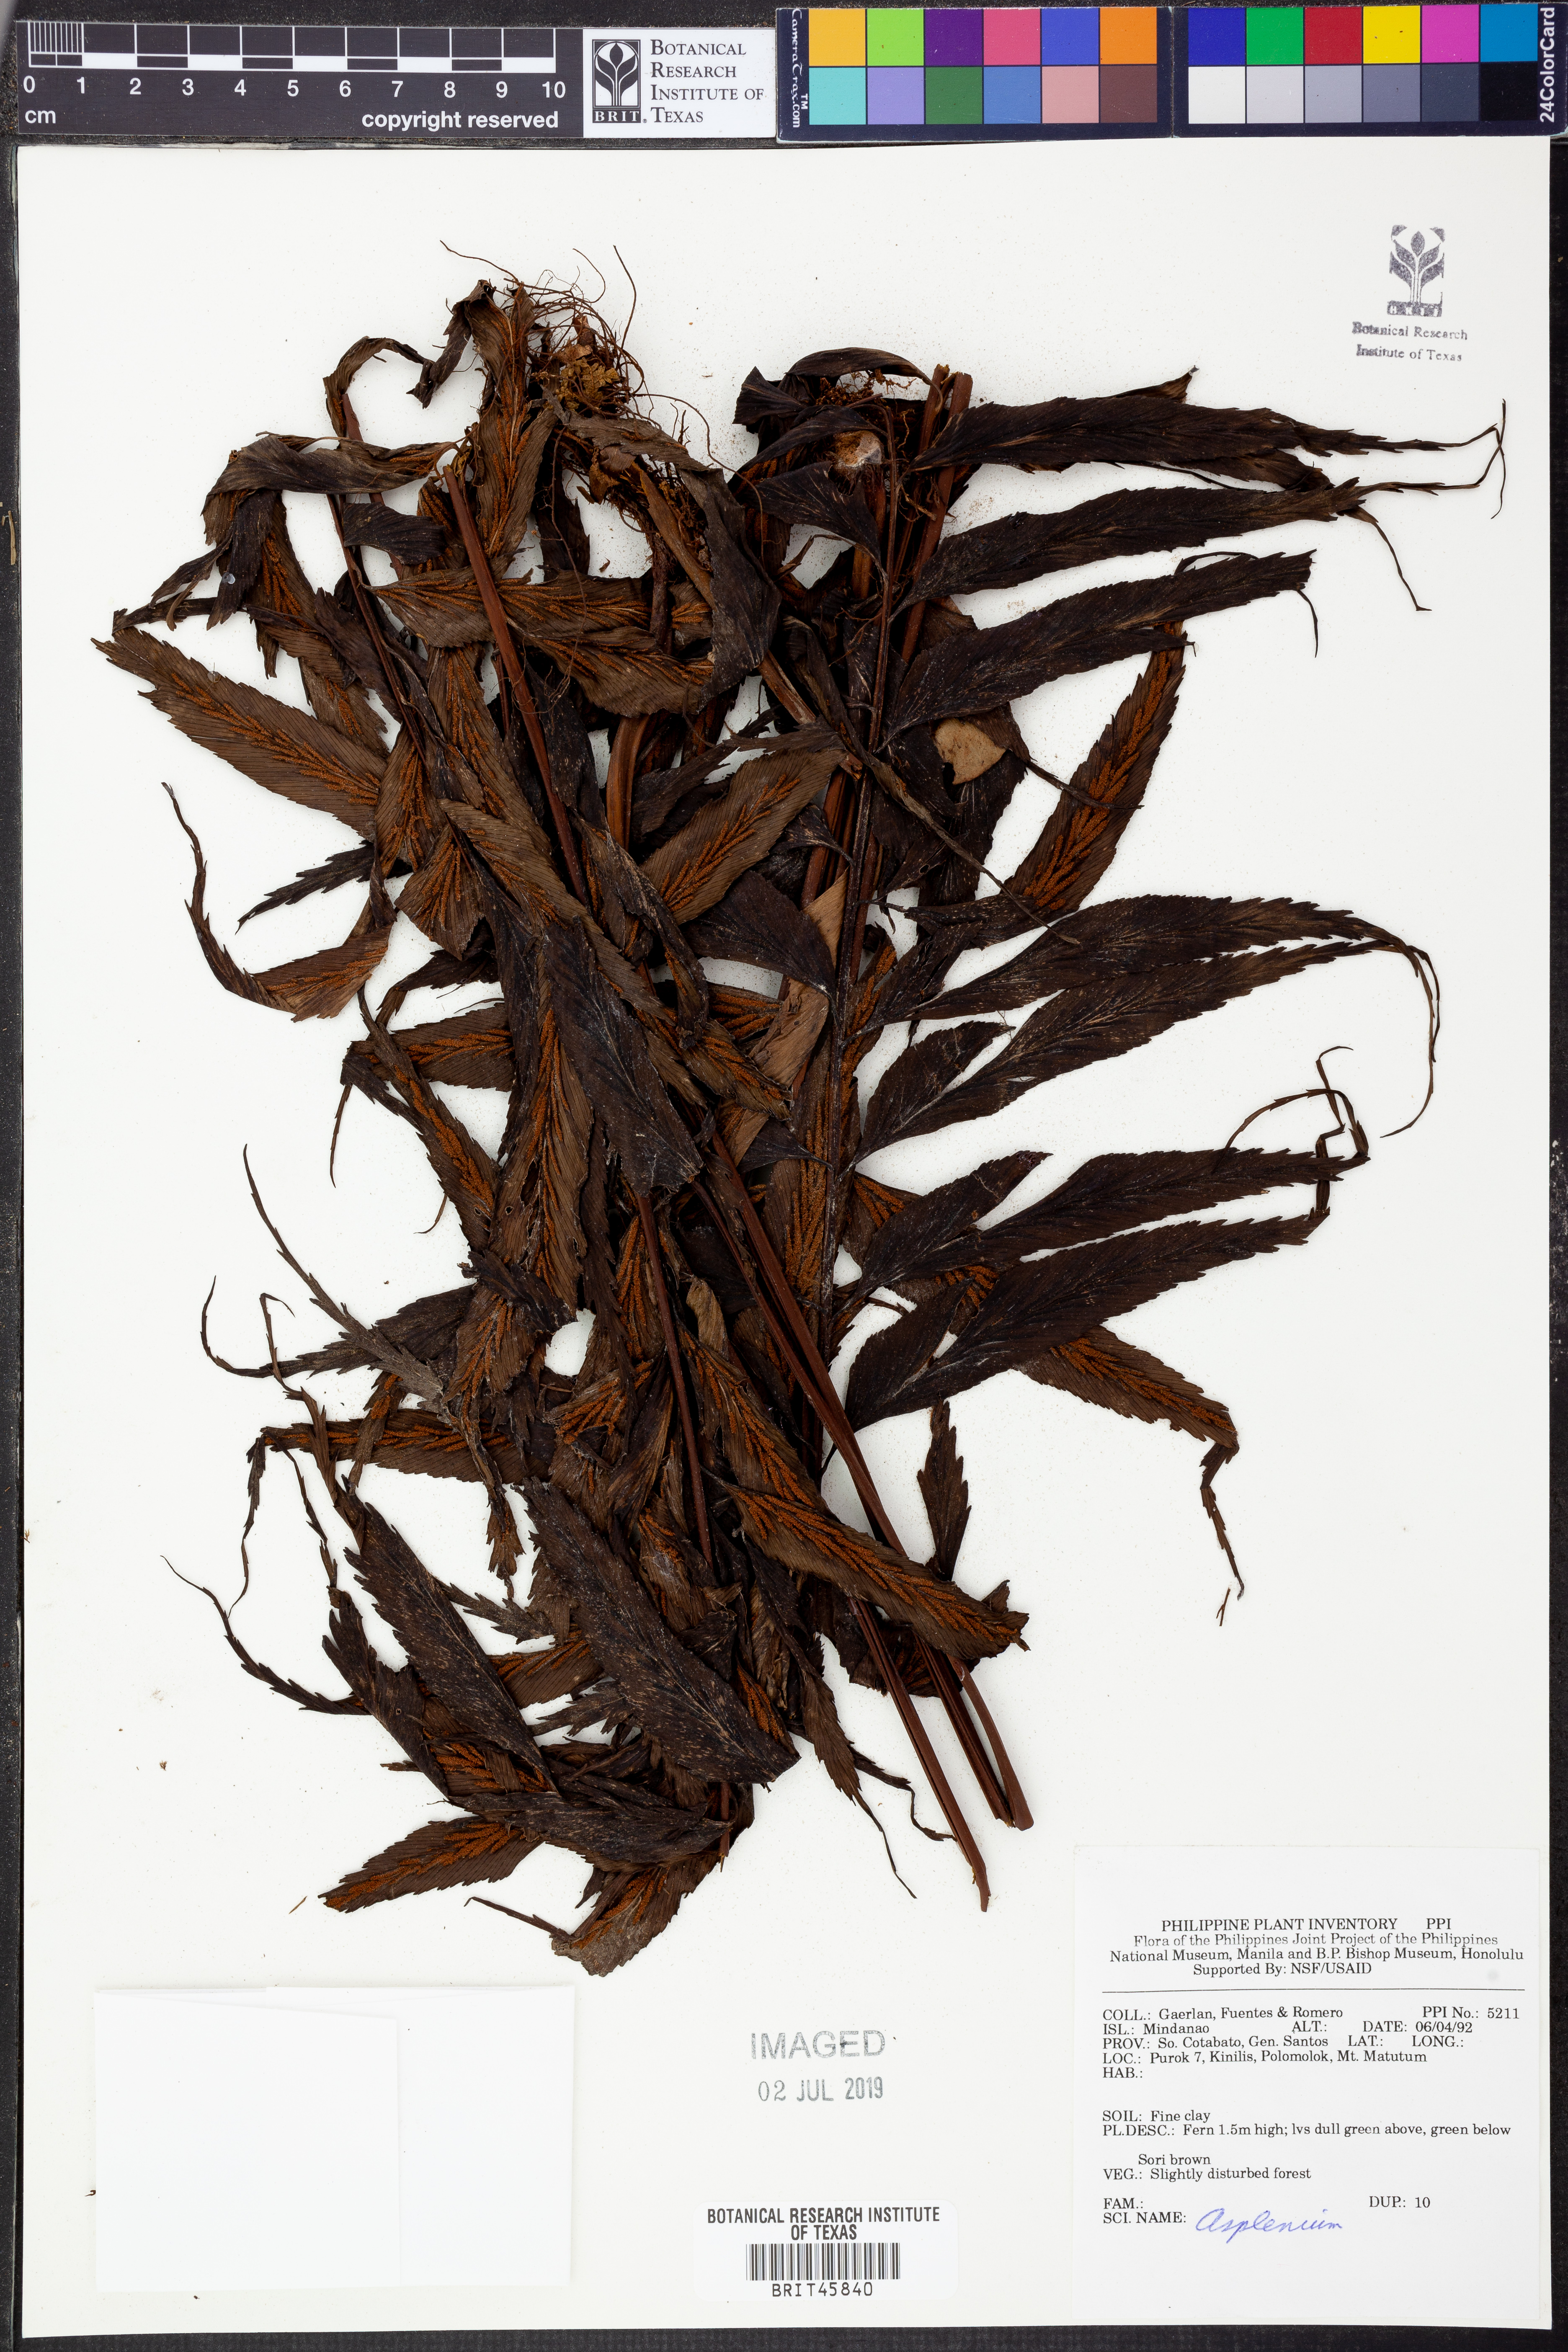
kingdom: Plantae
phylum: Tracheophyta
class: Polypodiopsida
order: Polypodiales
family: Aspleniaceae
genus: Asplenium
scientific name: Asplenium
